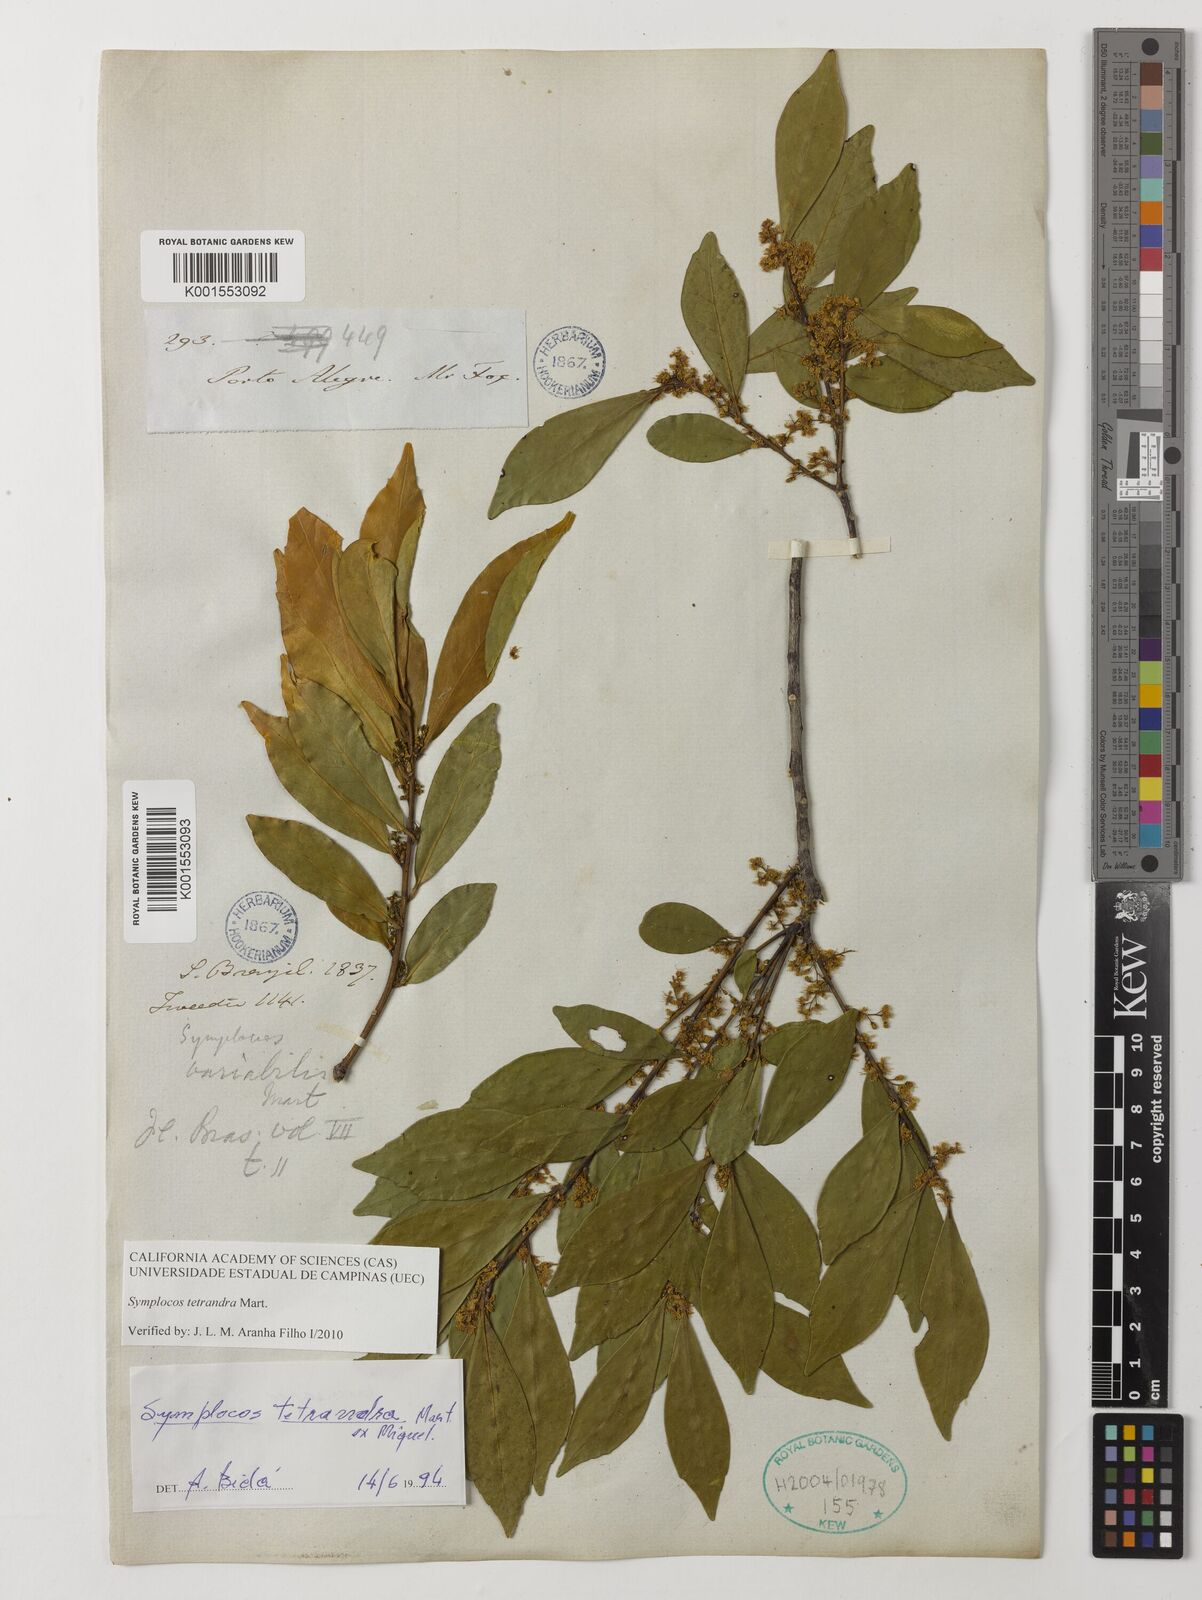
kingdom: Plantae
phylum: Tracheophyta
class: Magnoliopsida
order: Ericales
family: Symplocaceae
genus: Symplocos
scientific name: Symplocos tetrandra
